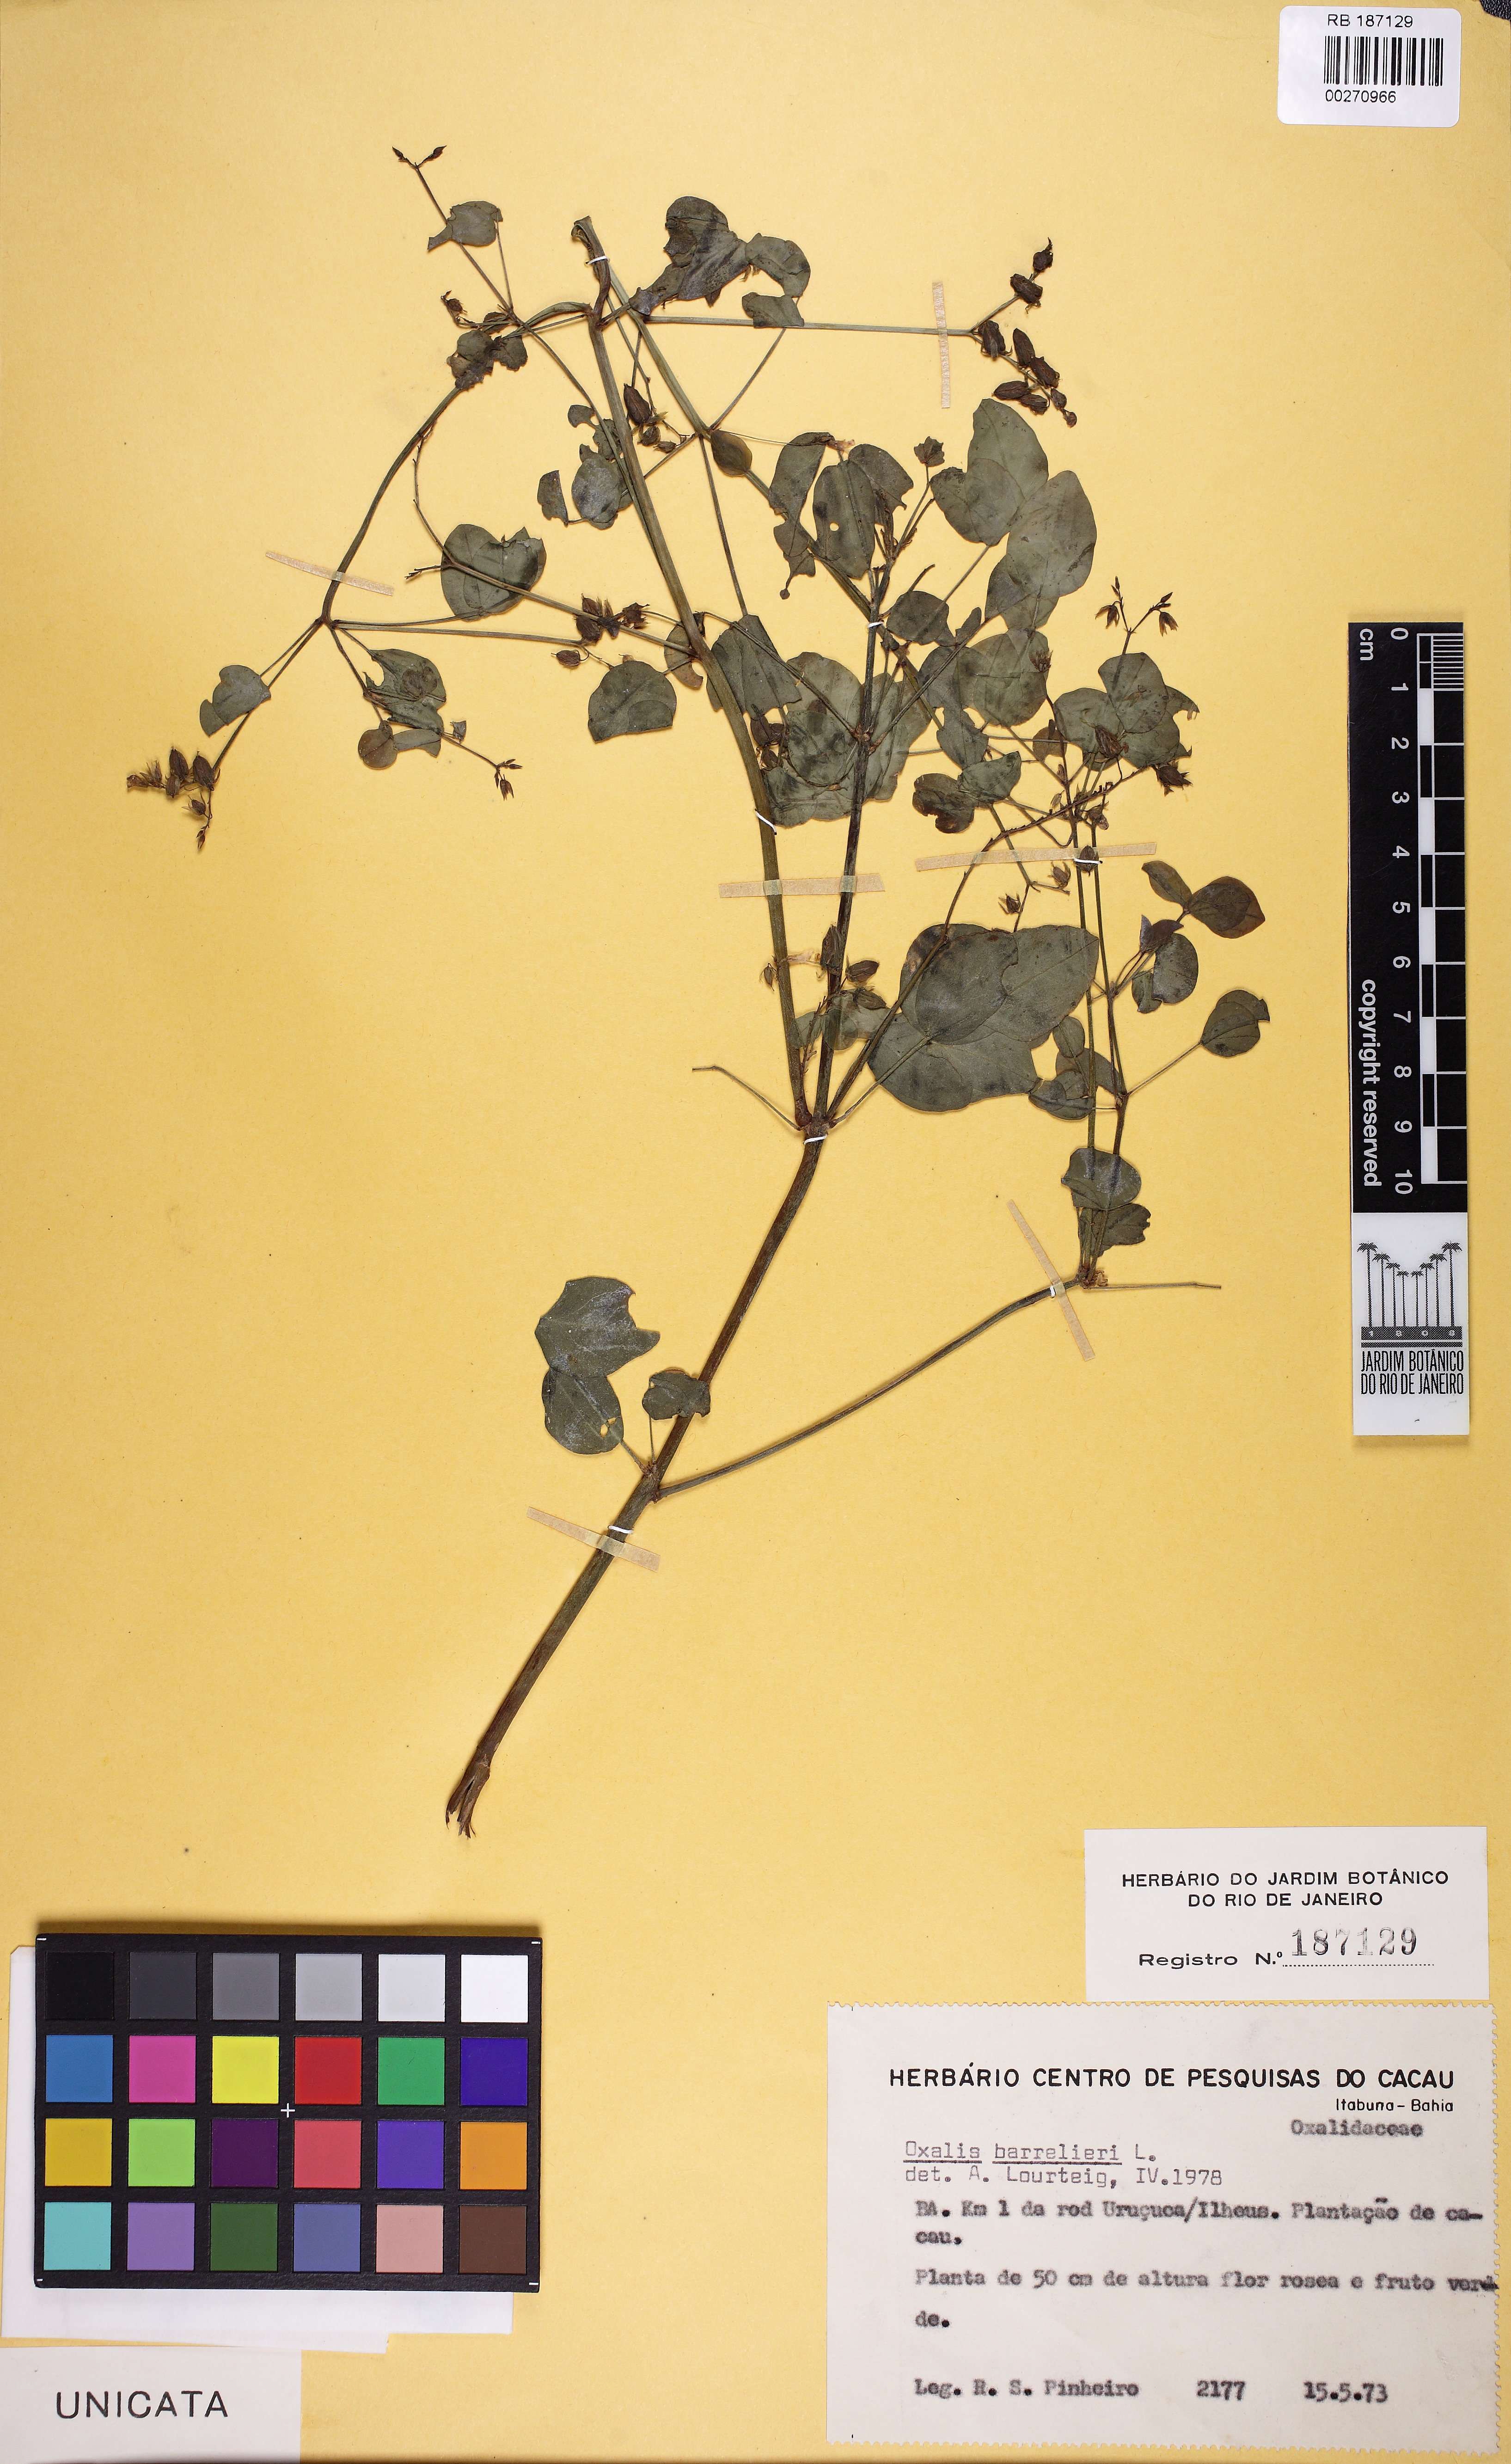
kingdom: Plantae
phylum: Tracheophyta
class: Magnoliopsida
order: Oxalidales
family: Oxalidaceae
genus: Oxalis
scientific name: Oxalis barrelieri
